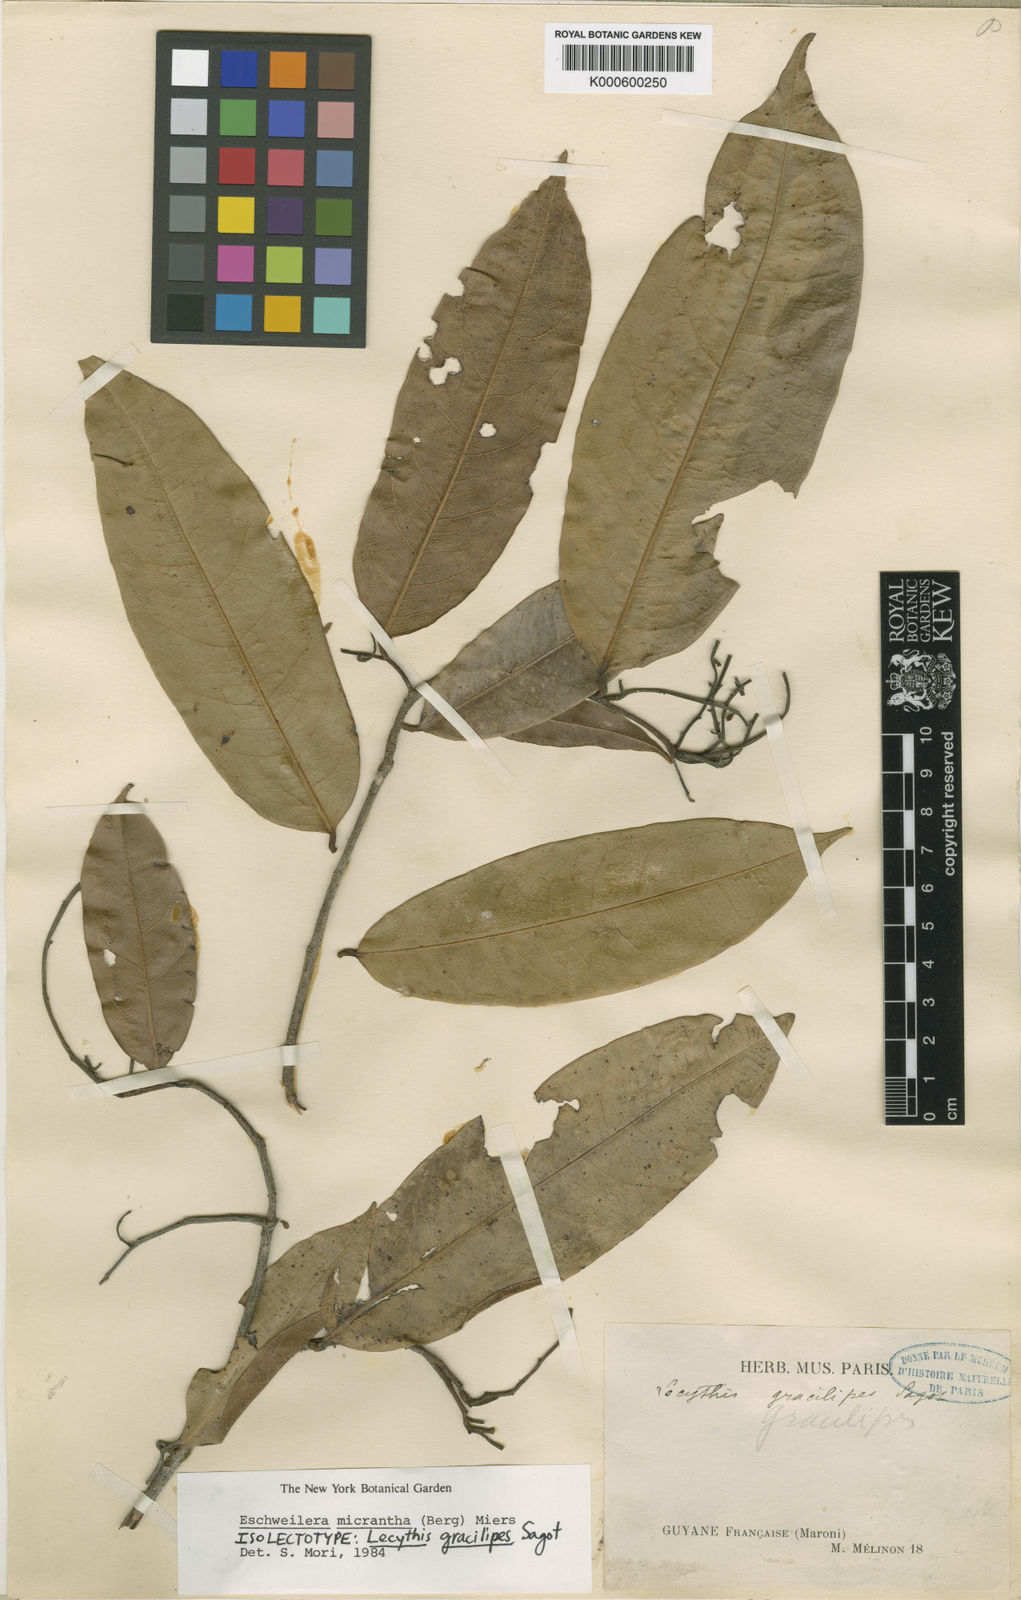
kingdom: Plantae
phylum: Tracheophyta
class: Magnoliopsida
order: Ericales
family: Lecythidaceae
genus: Eschweilera
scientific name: Eschweilera micrantha
